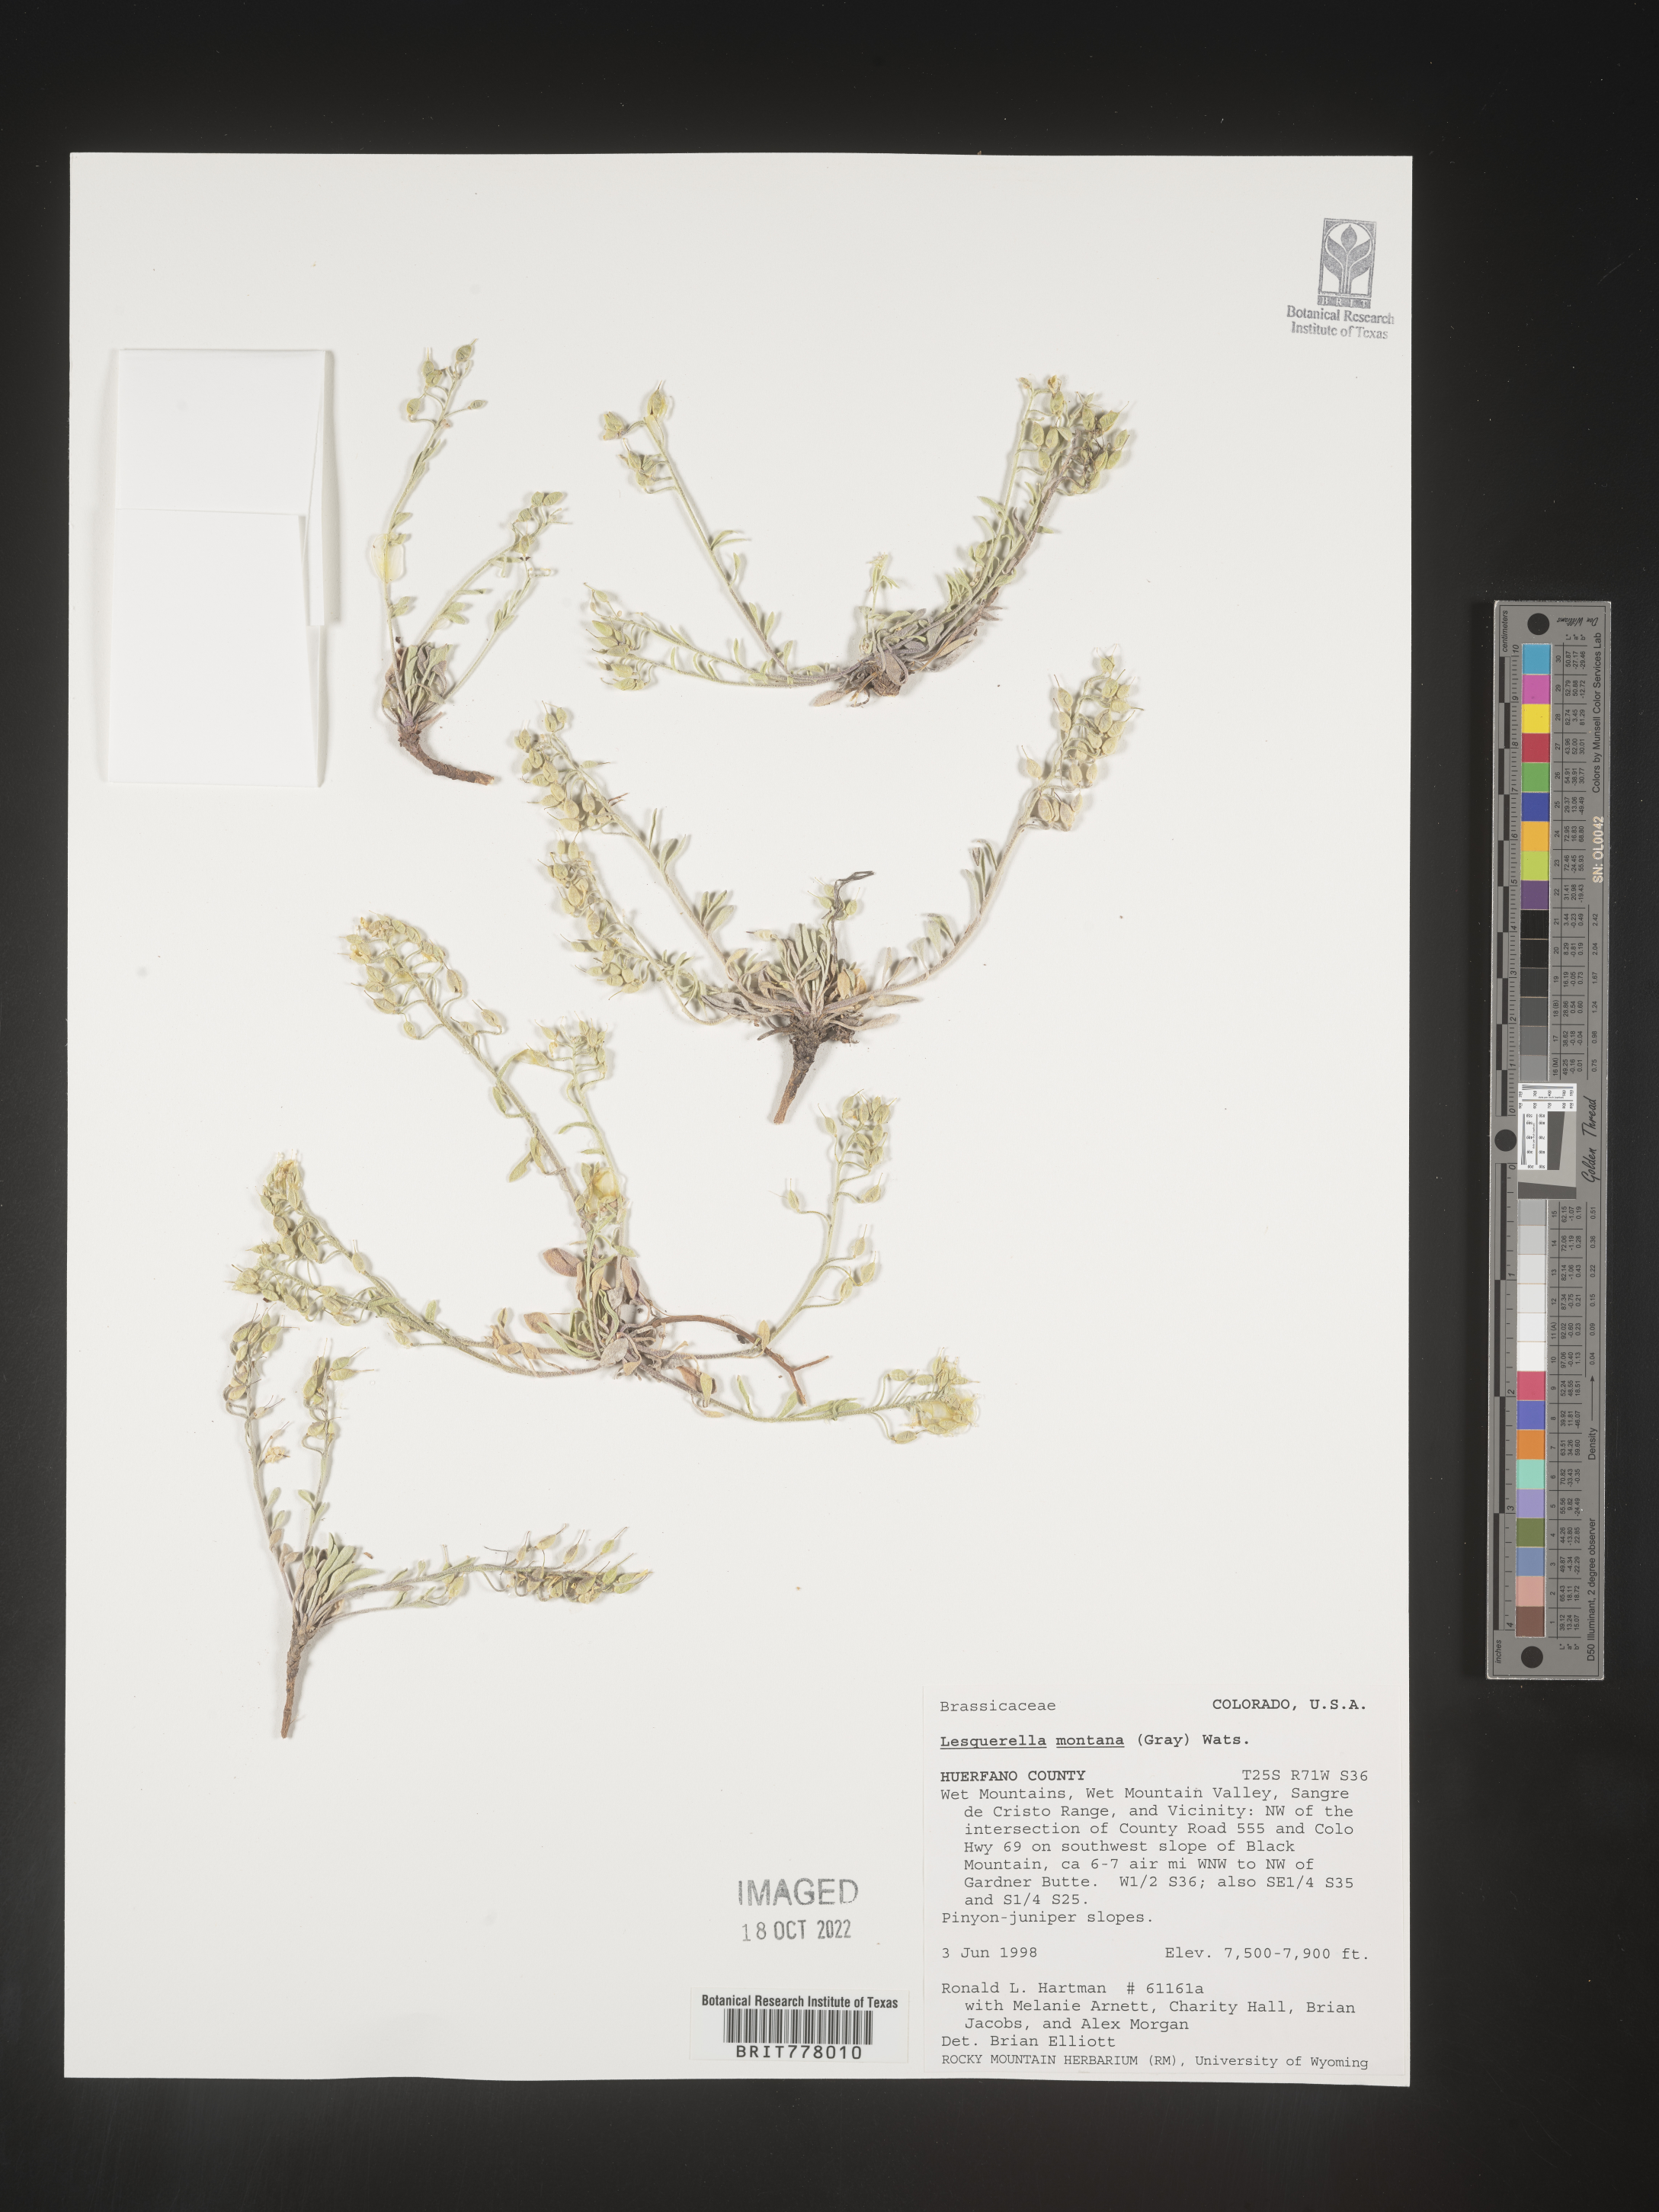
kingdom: Chromista
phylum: Cercozoa
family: Psammonobiotidae
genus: Lesquerella
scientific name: Lesquerella
